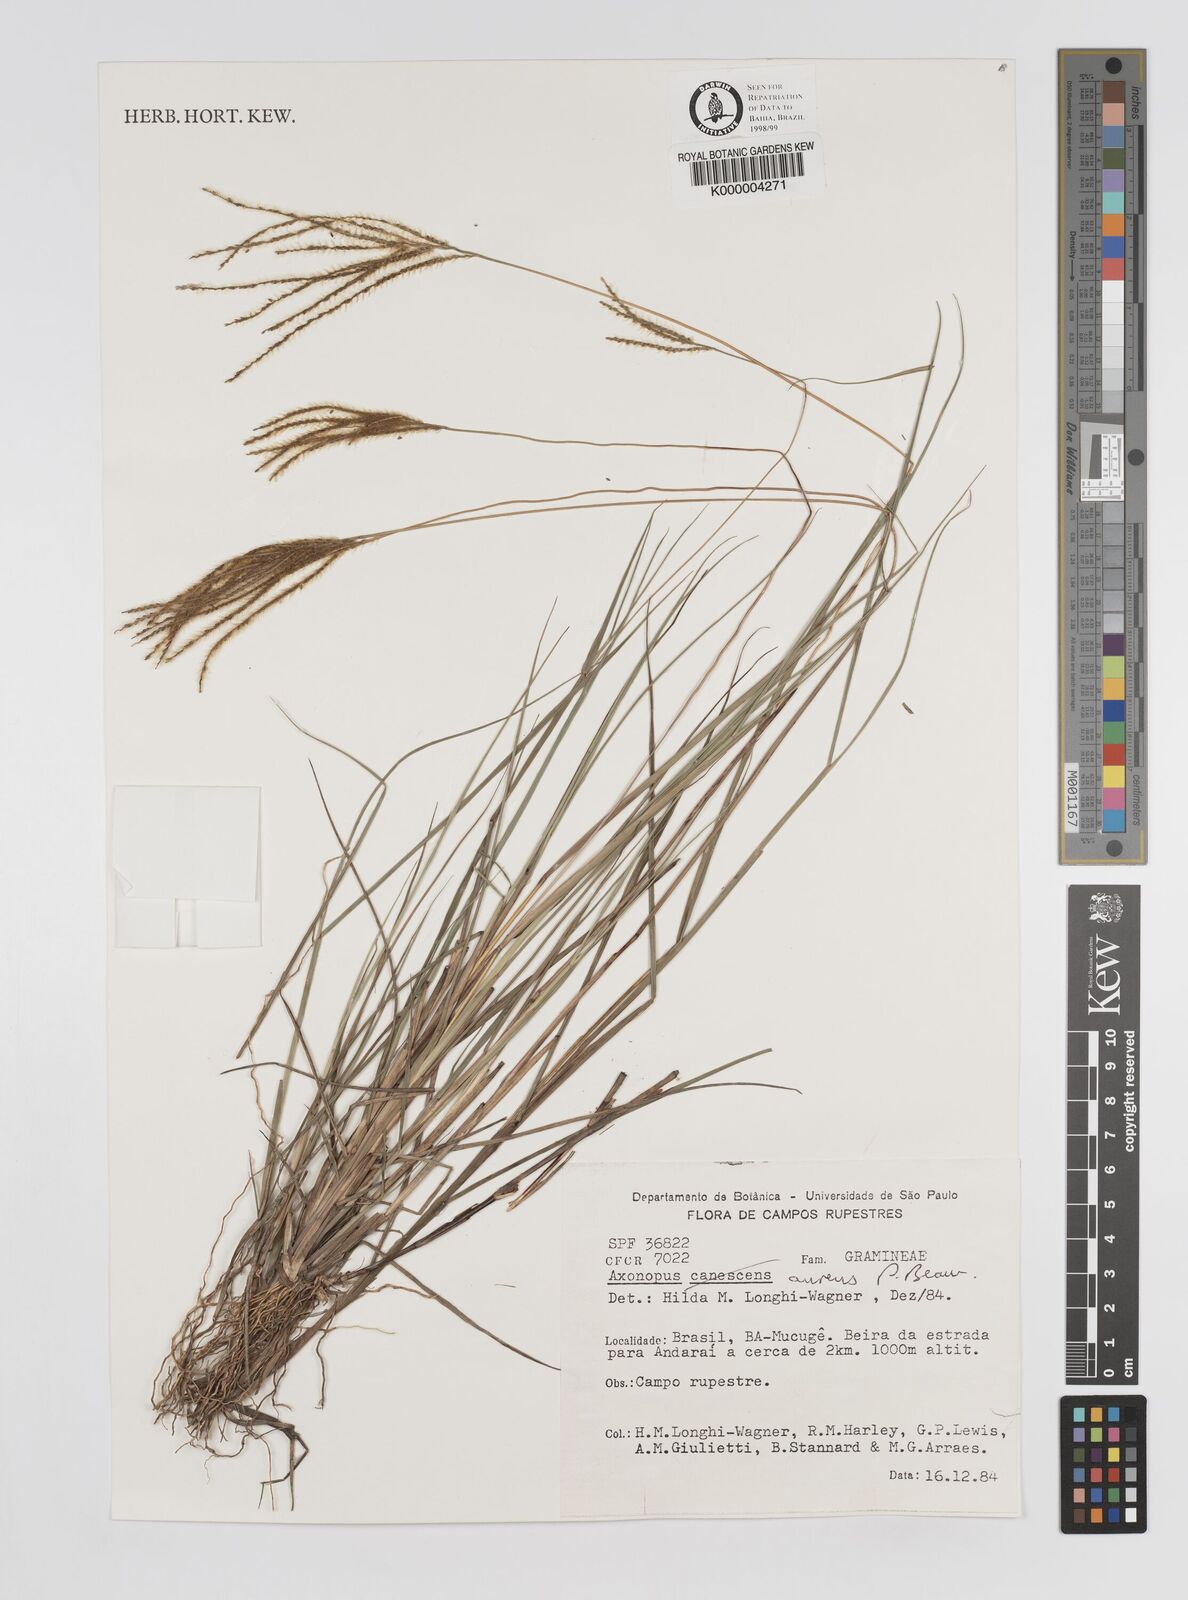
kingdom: Plantae
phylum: Tracheophyta
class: Liliopsida
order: Poales
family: Poaceae
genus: Axonopus
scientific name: Axonopus aureus
